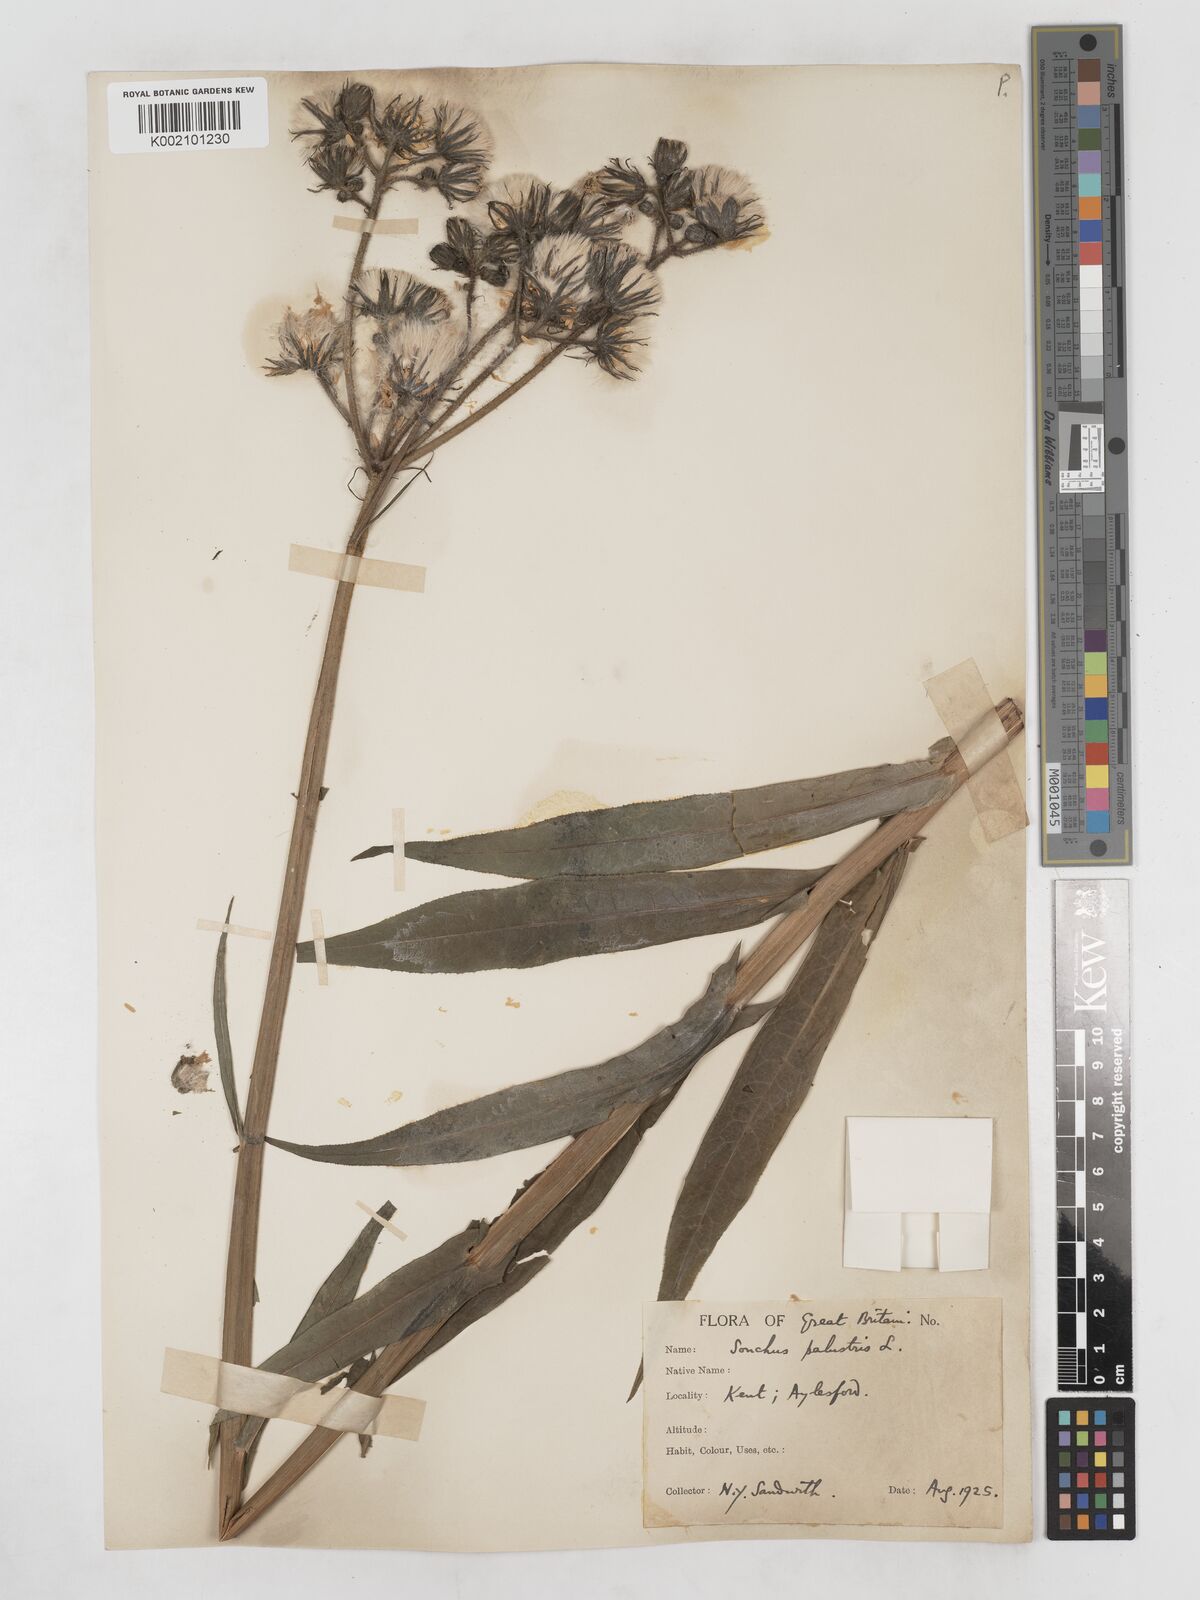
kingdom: Plantae
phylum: Tracheophyta
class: Magnoliopsida
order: Asterales
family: Asteraceae
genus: Sonchus
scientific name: Sonchus palustris
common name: Marsh sow-thistle
